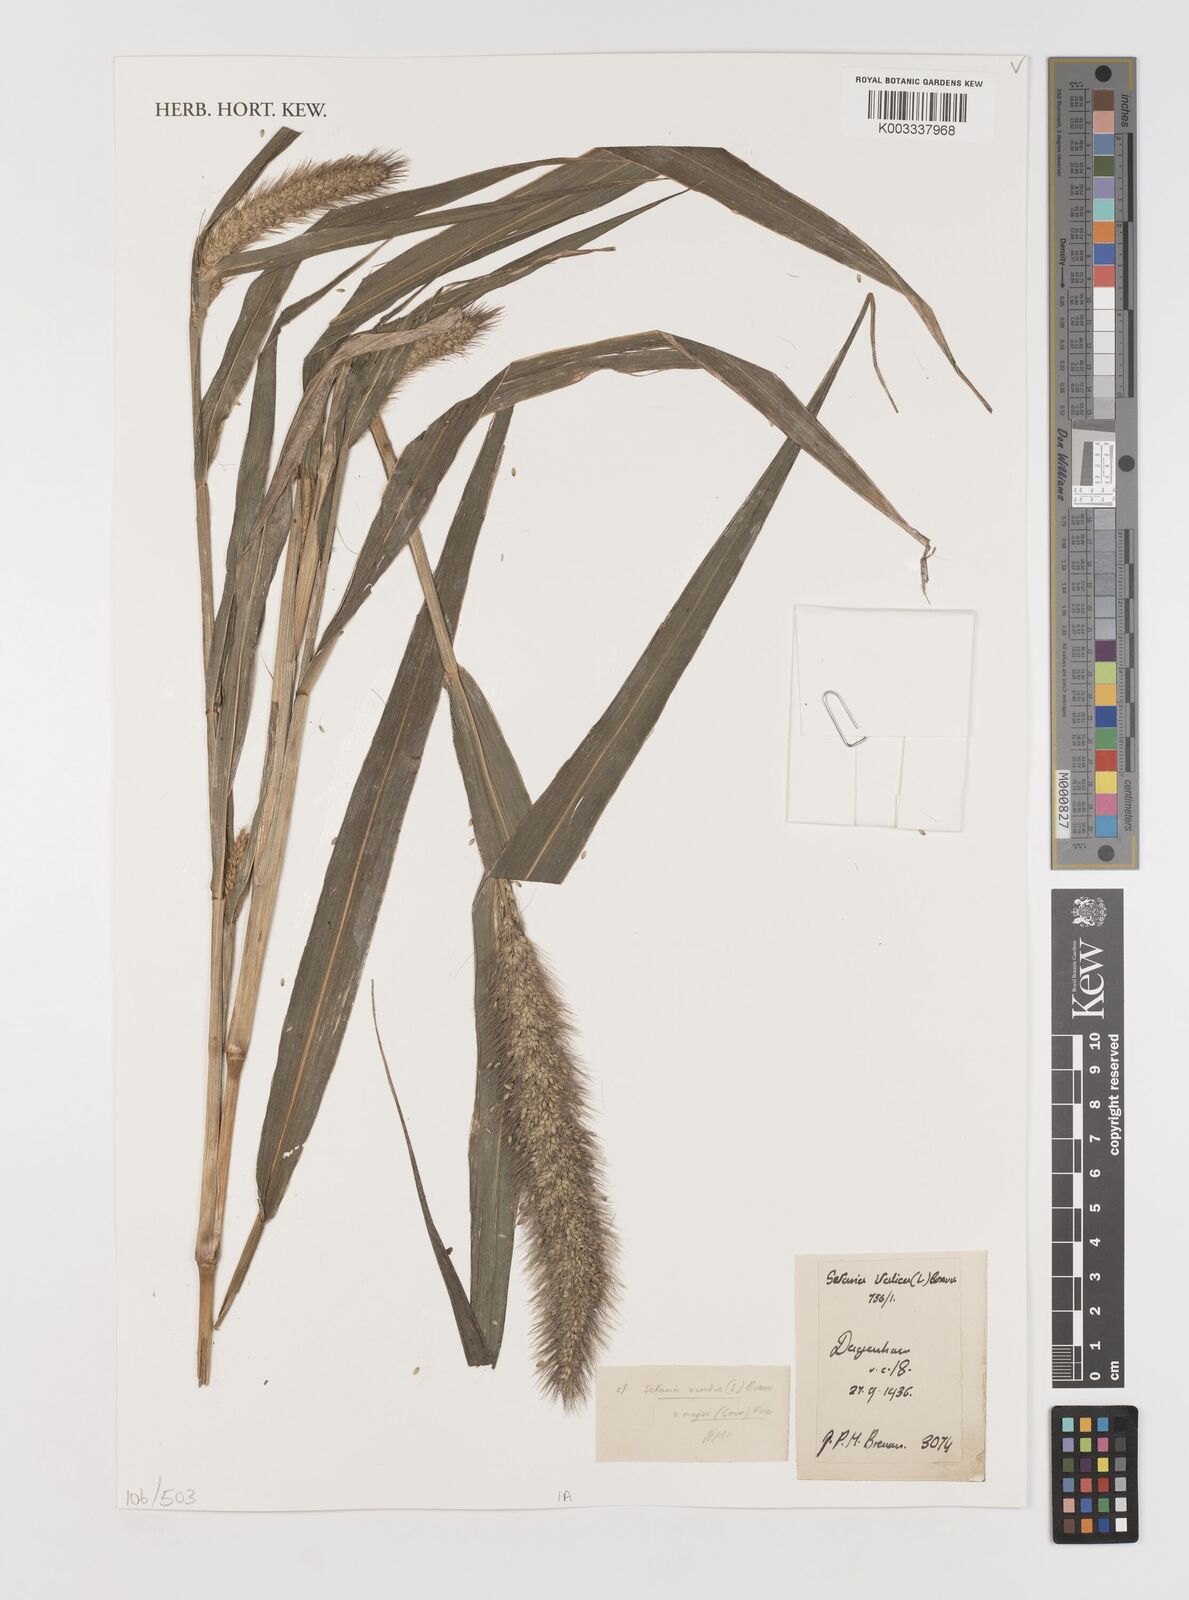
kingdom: Plantae
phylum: Tracheophyta
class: Liliopsida
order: Poales
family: Poaceae
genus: Setaria
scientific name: Setaria italica
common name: Foxtail bristle-grass
